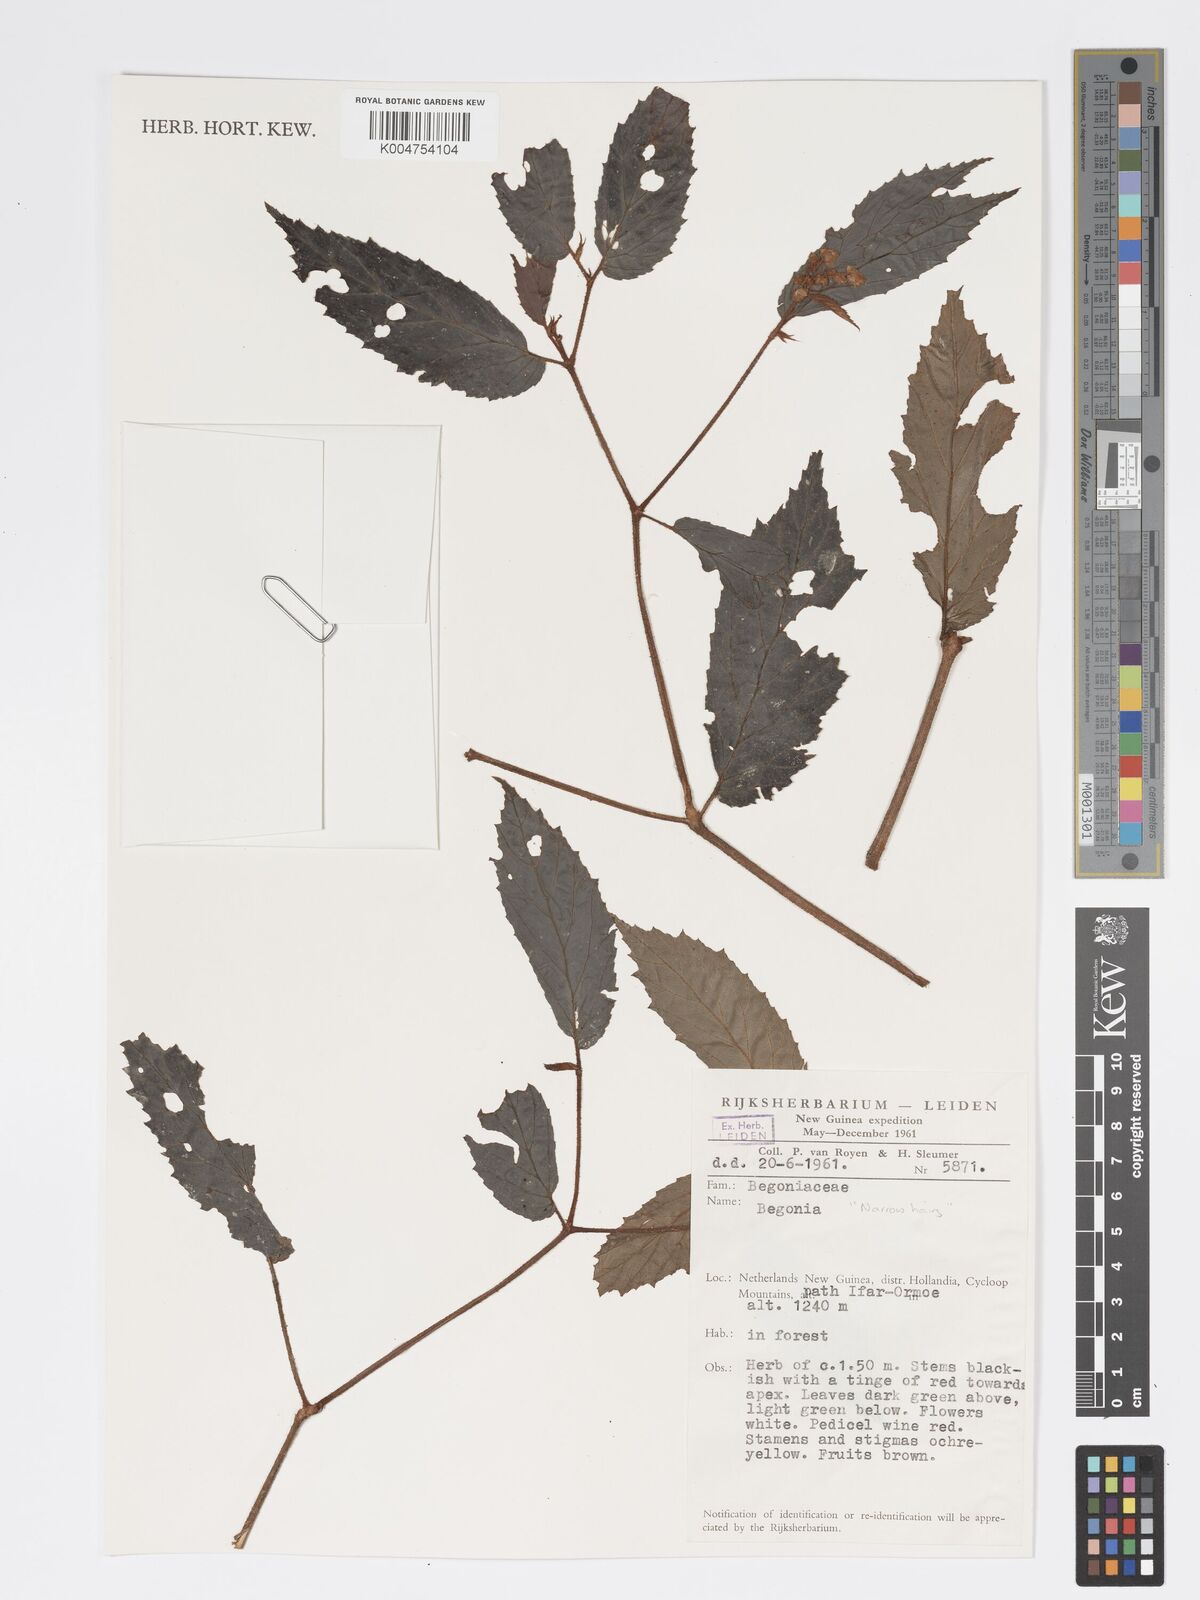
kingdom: Plantae
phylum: Tracheophyta
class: Magnoliopsida
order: Cucurbitales
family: Begoniaceae
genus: Begonia
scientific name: Begonia
